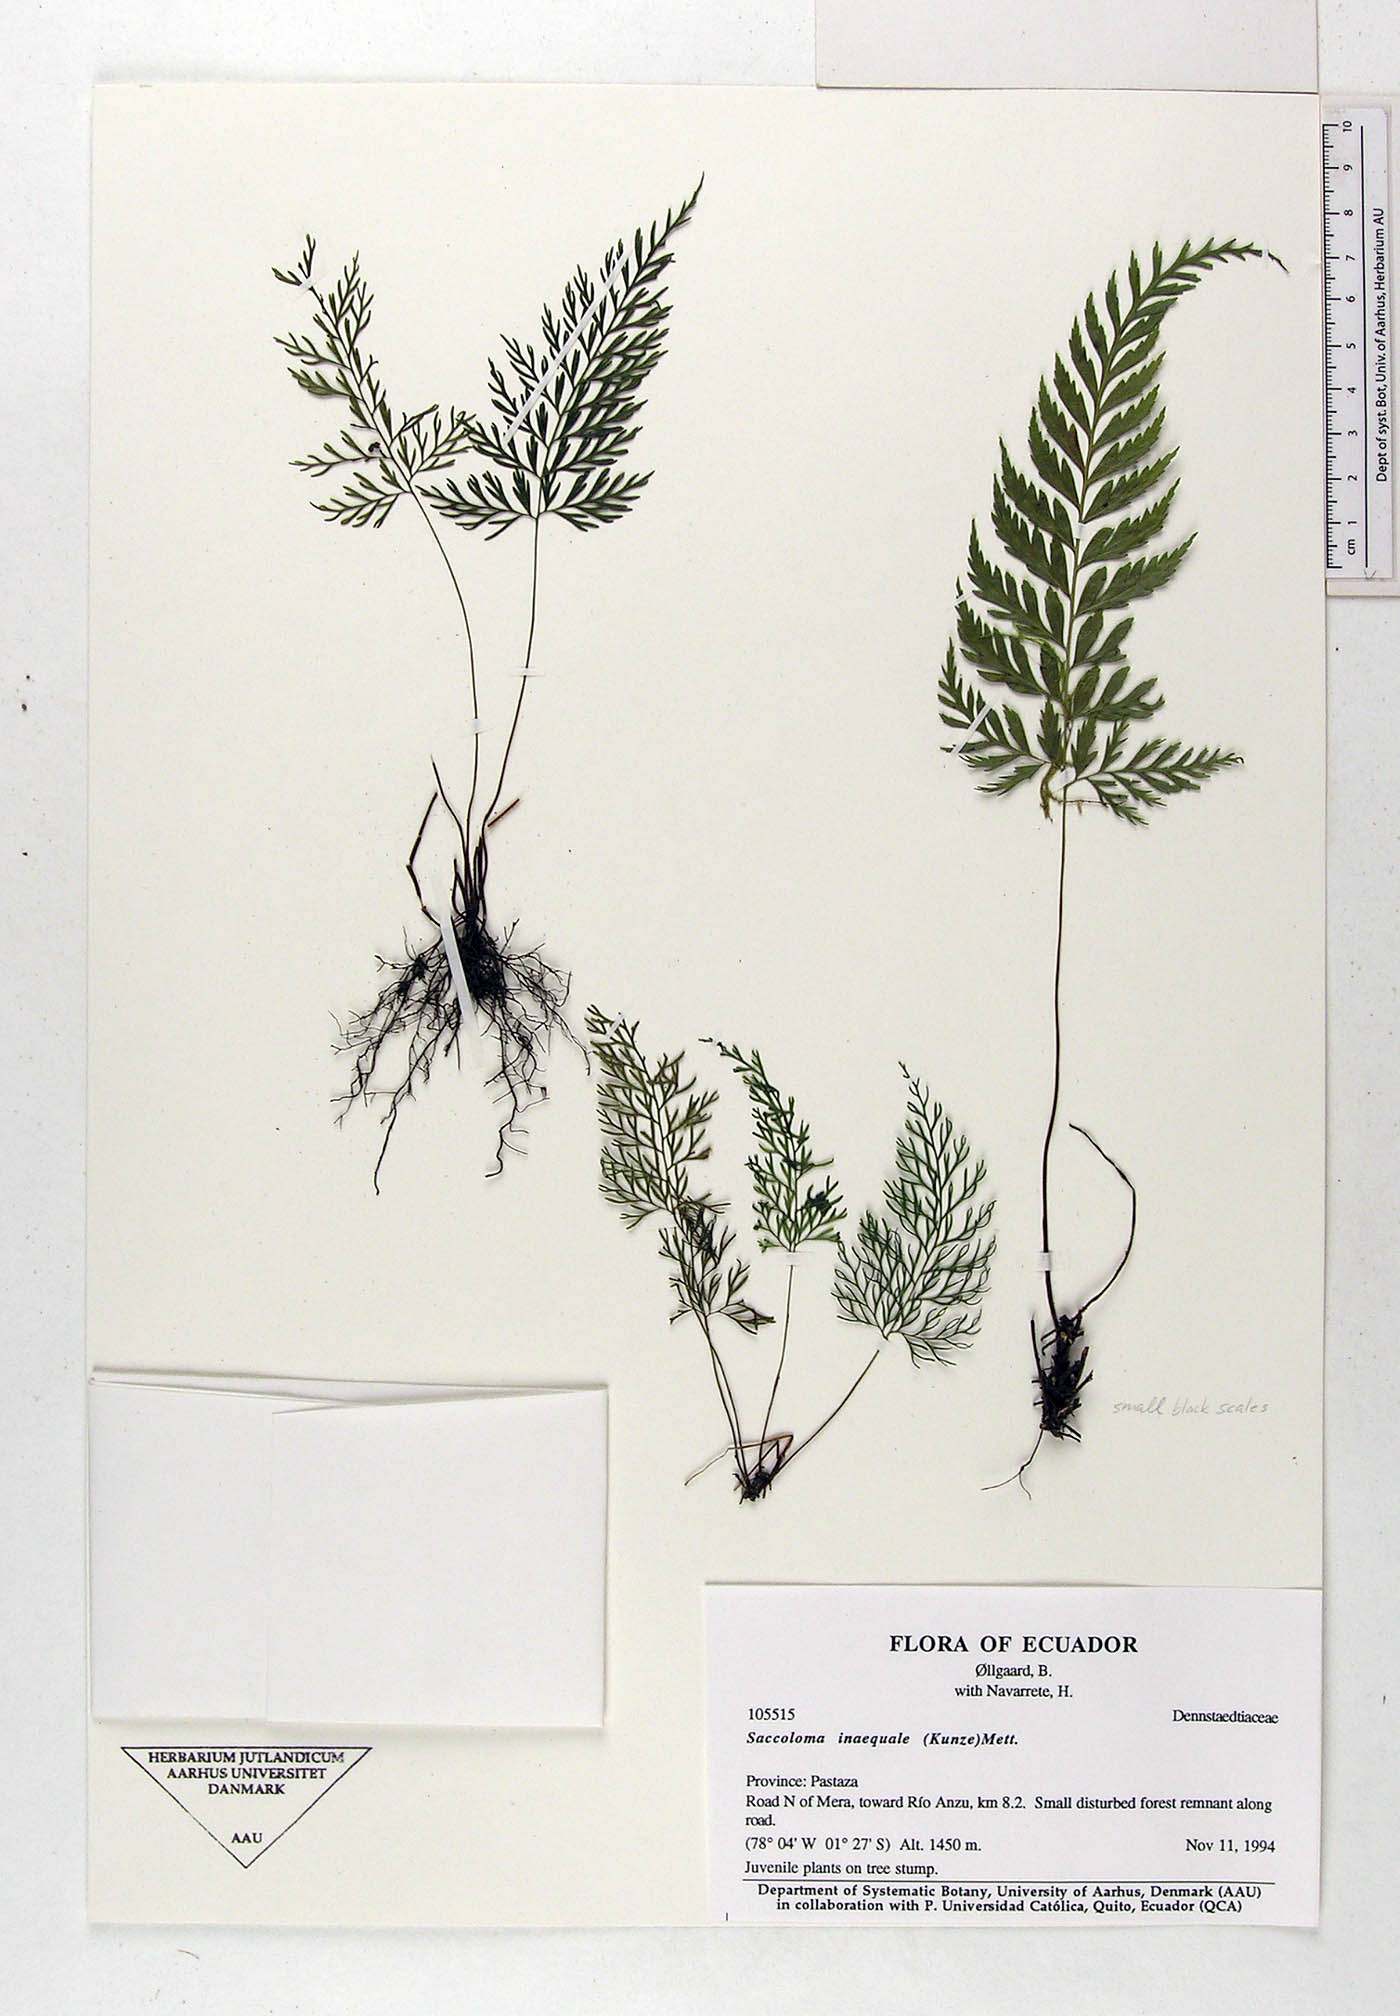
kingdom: Plantae
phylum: Tracheophyta
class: Polypodiopsida
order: Polypodiales
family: Saccolomataceae
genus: Saccoloma
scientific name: Saccoloma inaequale
